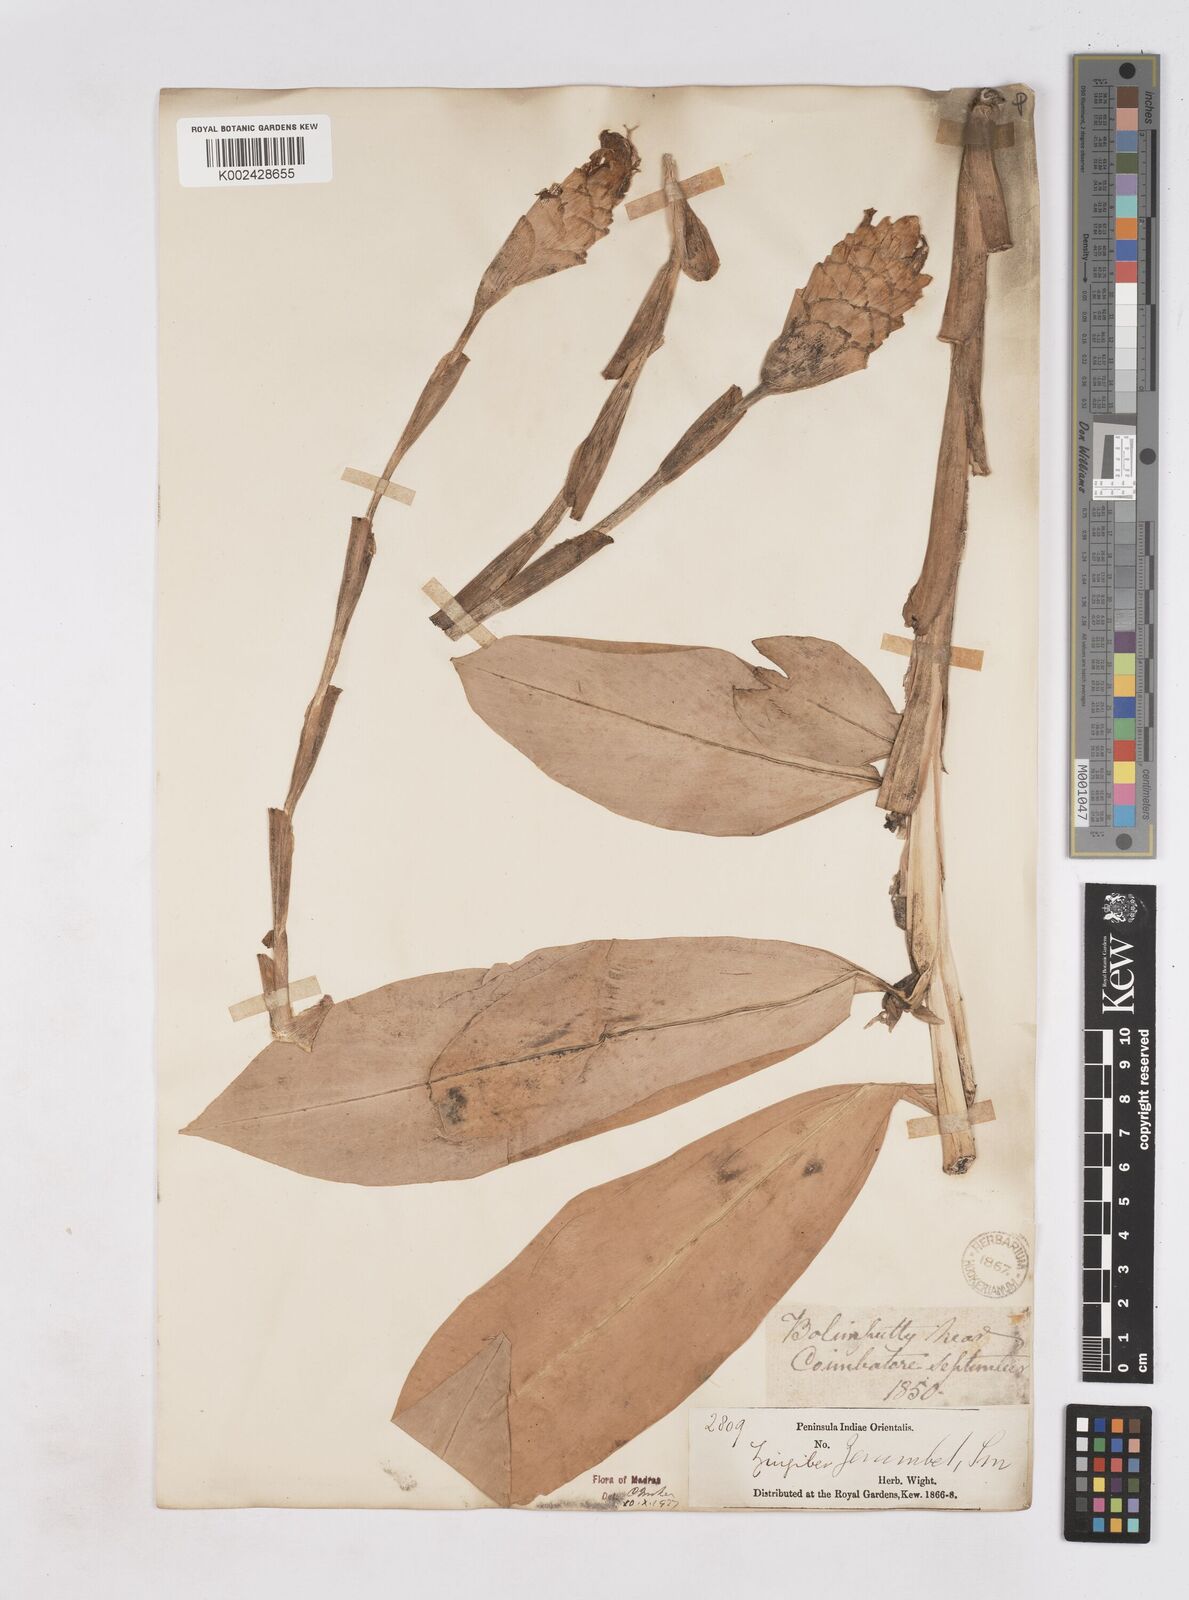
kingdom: Plantae
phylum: Tracheophyta
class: Liliopsida
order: Zingiberales
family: Zingiberaceae
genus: Zingiber
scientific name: Zingiber zerumbet
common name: Bitter ginger
